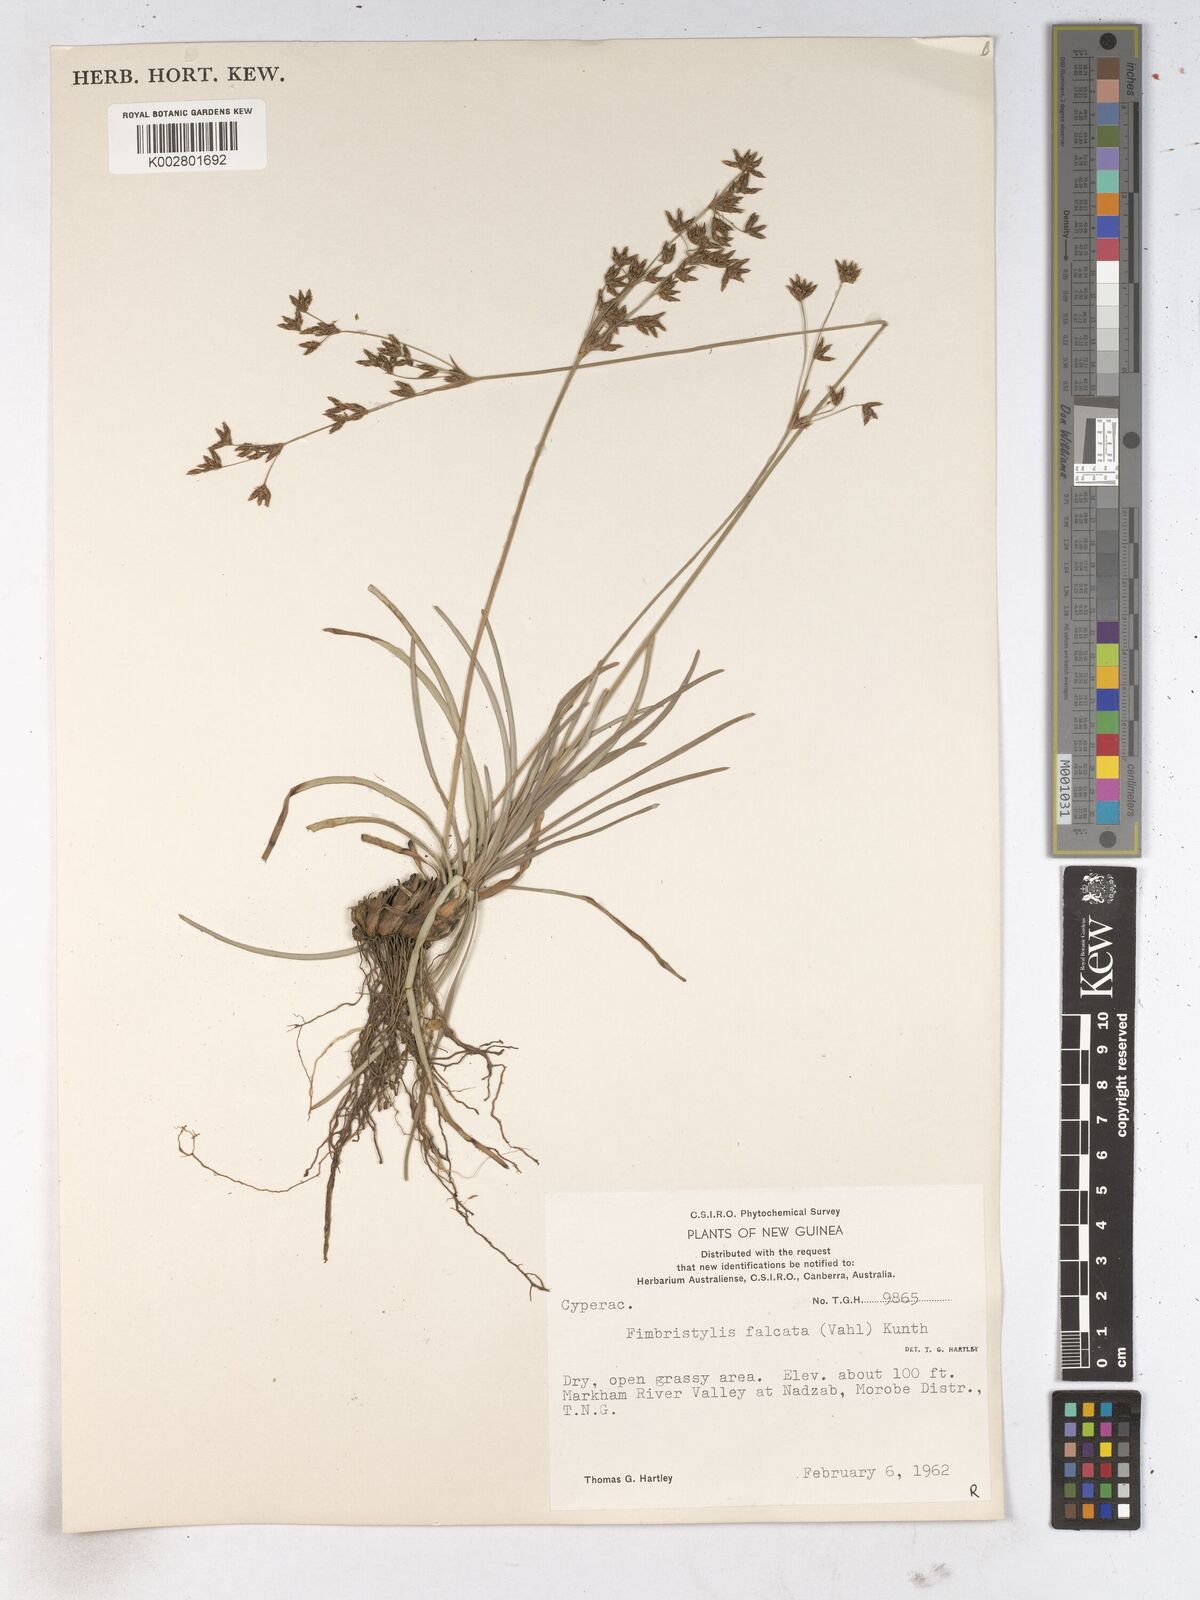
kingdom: Plantae
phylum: Tracheophyta
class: Liliopsida
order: Poales
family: Cyperaceae
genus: Fimbristylis
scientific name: Fimbristylis falcata
